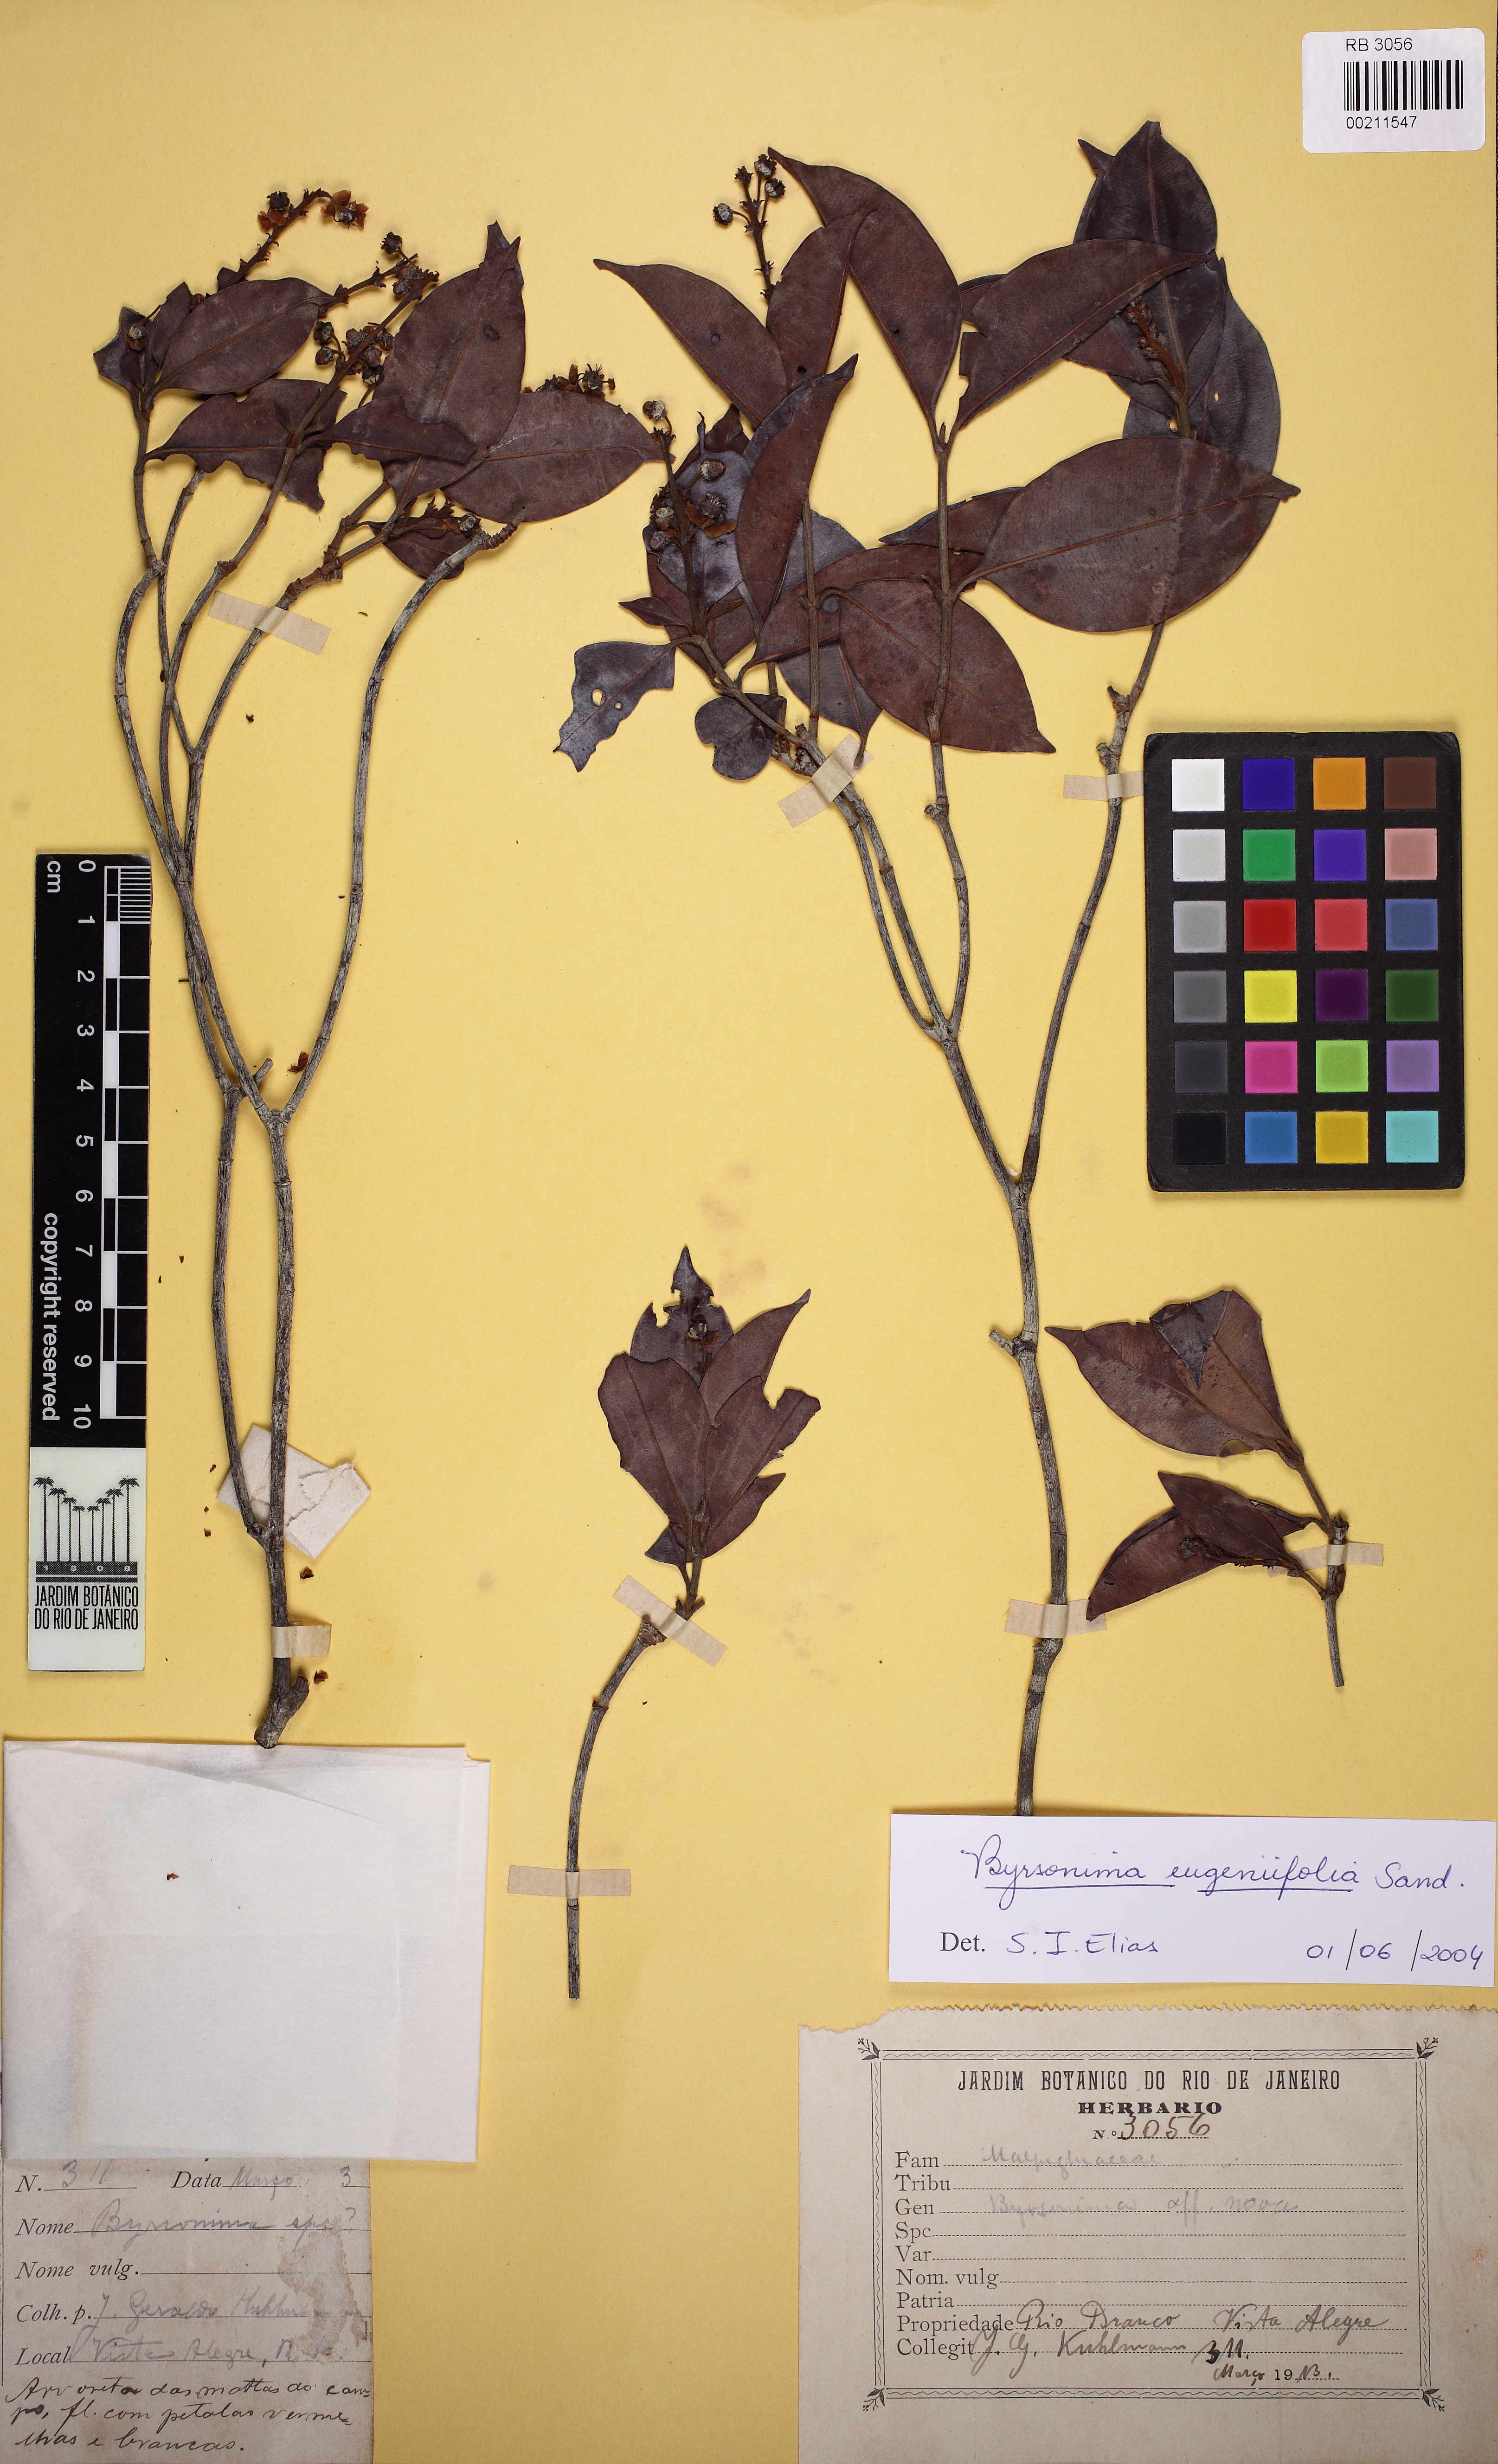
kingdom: Plantae
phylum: Tracheophyta
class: Magnoliopsida
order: Malpighiales
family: Malpighiaceae
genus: Byrsonima
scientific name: Byrsonima eugeniifolia
